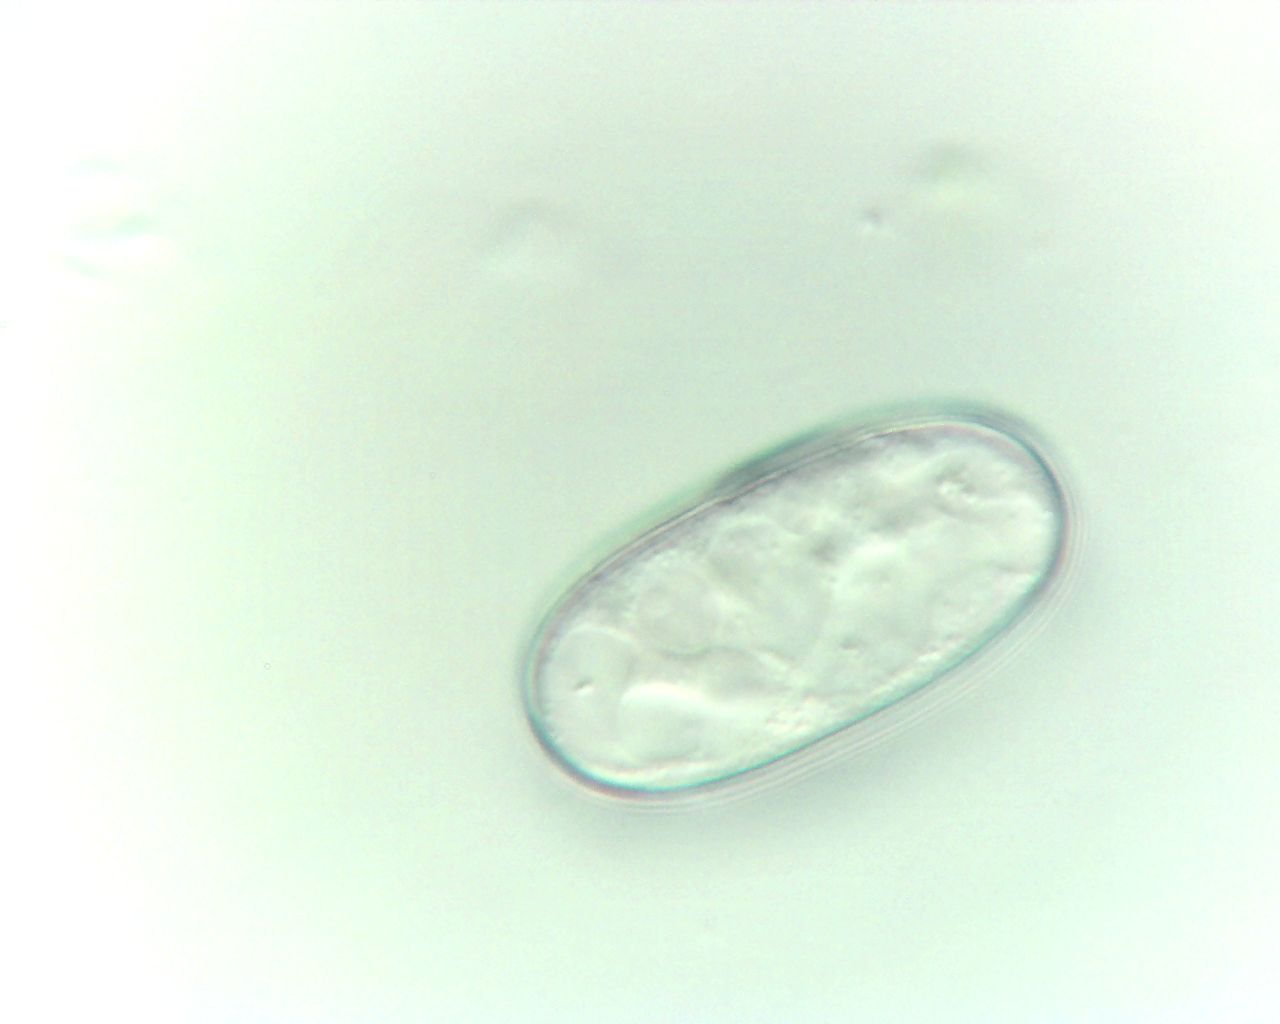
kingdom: Fungi
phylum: Ascomycota
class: Leotiomycetes
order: Helotiales
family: Erysiphaceae
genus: Erysiphe
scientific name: Erysiphe cruciferarum
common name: korsblomst-meldug
